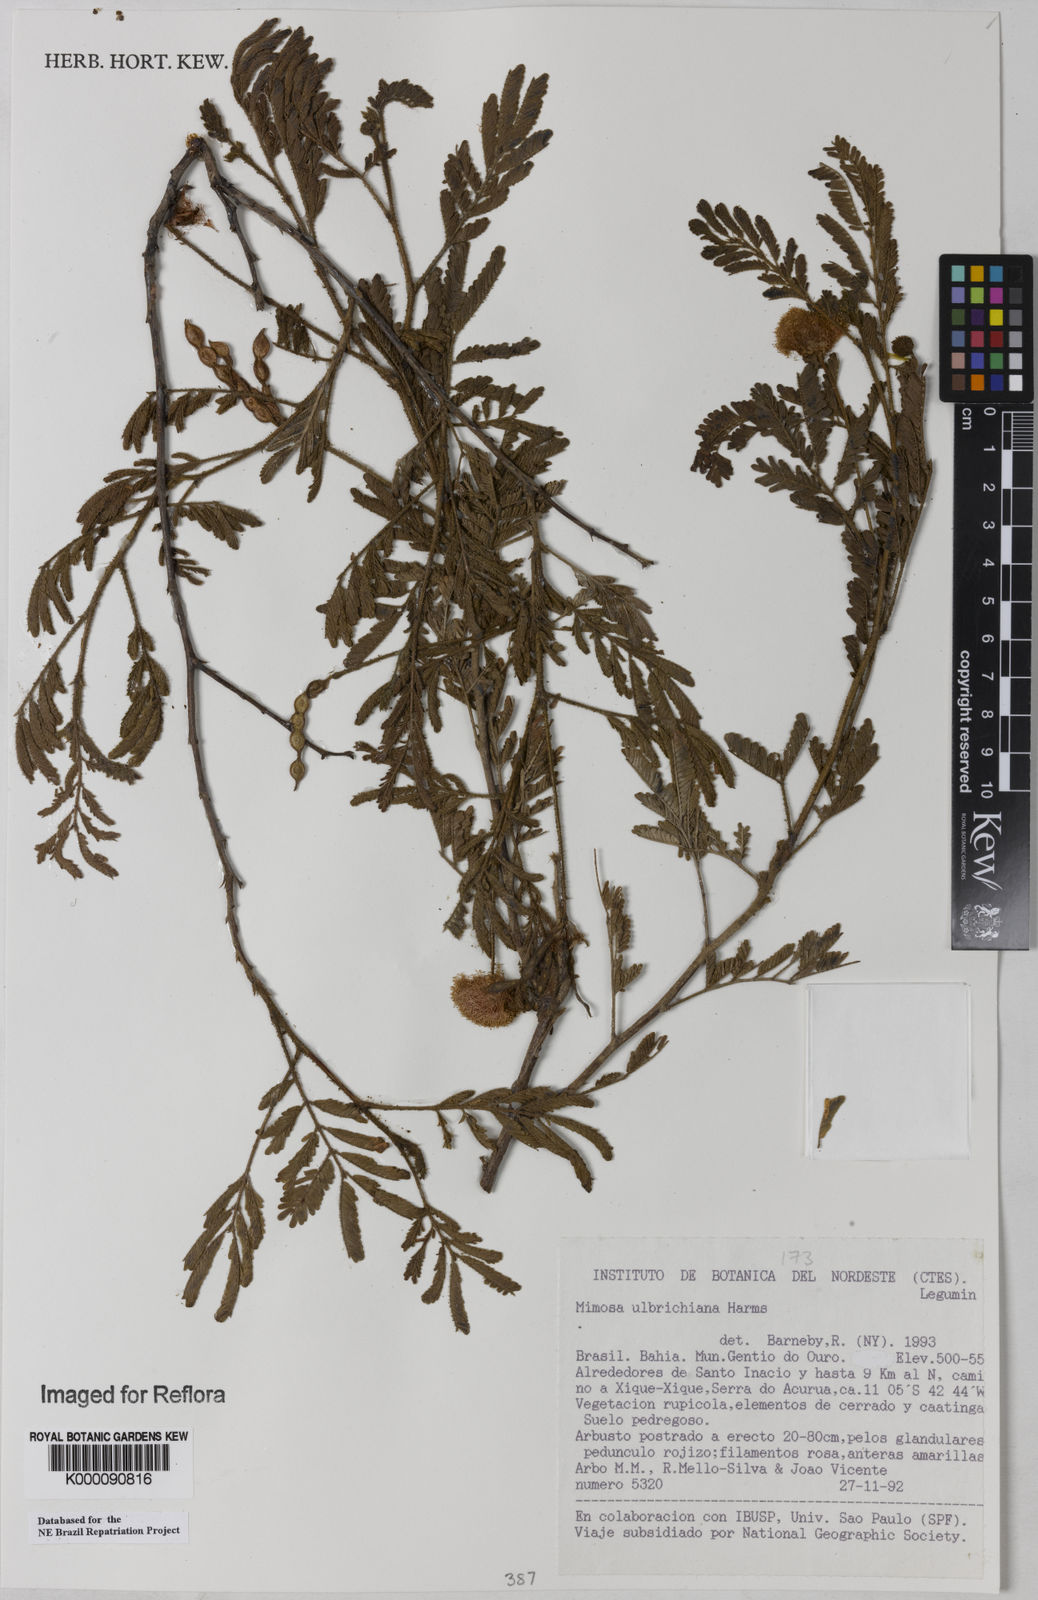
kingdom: Plantae
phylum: Tracheophyta
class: Magnoliopsida
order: Fabales
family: Fabaceae
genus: Mimosa
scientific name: Mimosa ulbrichiana
